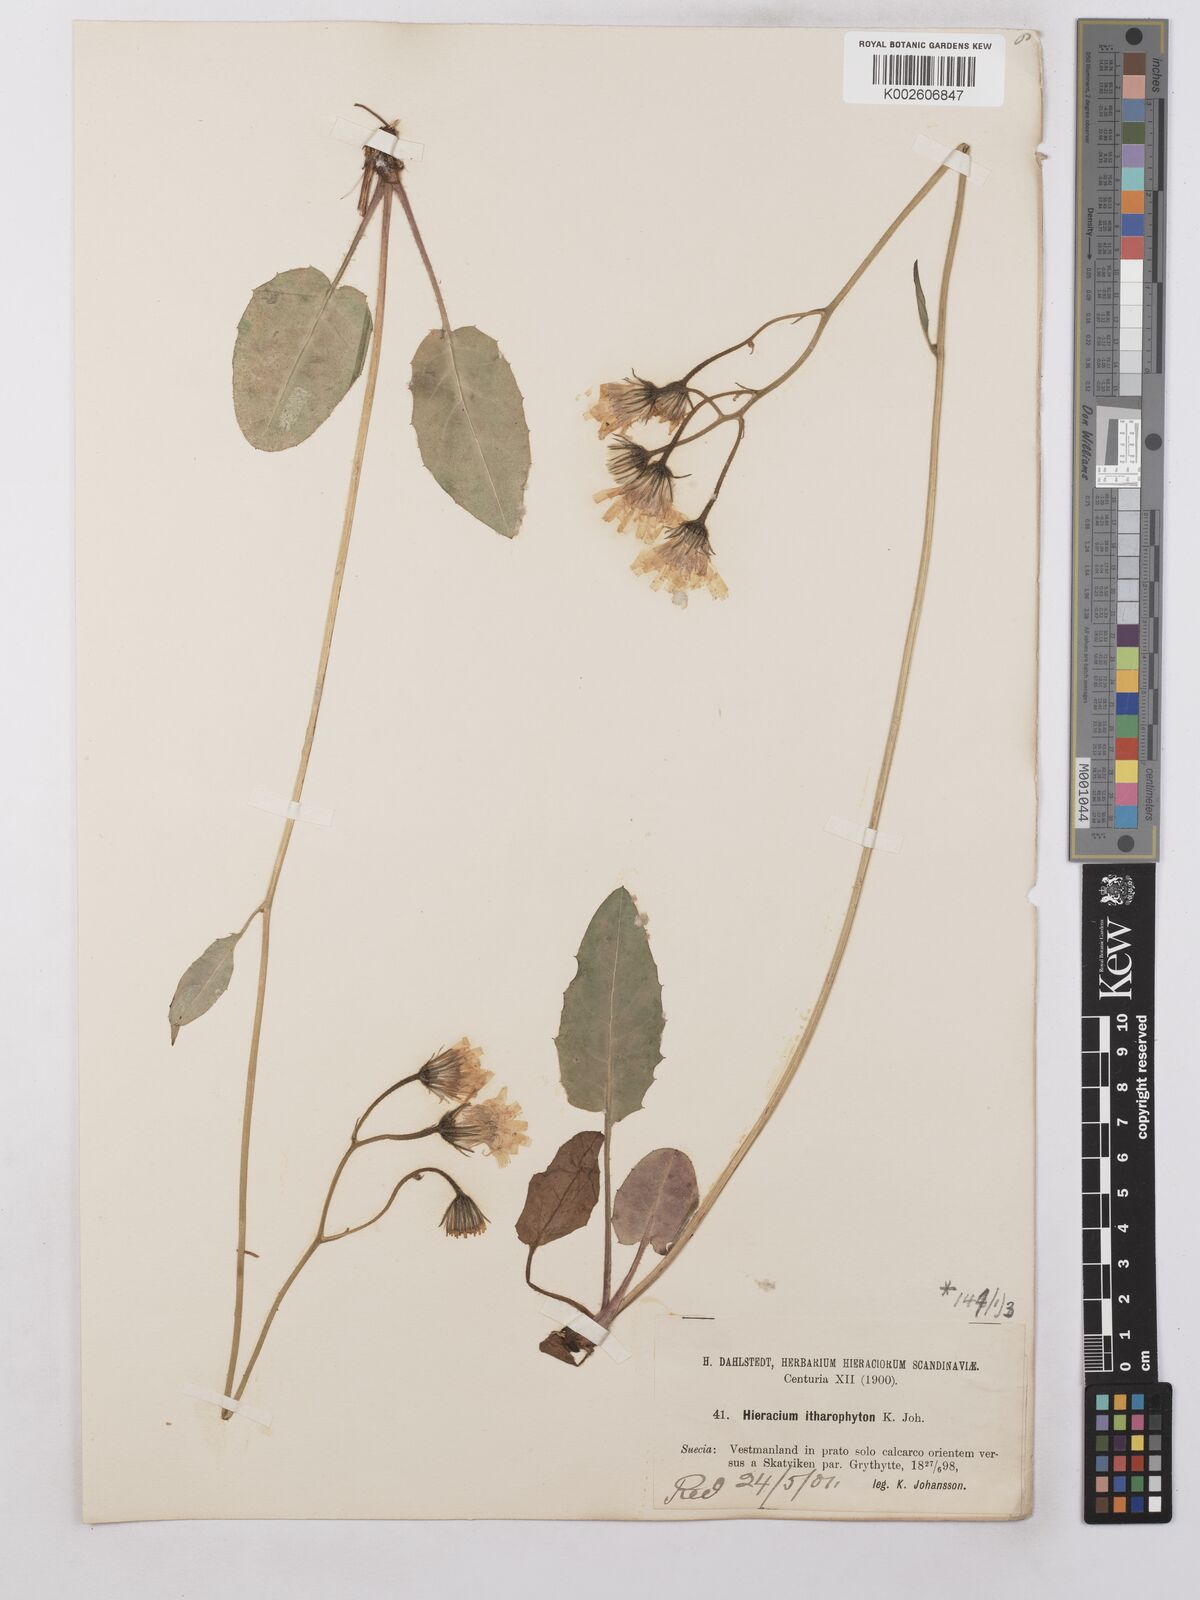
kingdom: Plantae
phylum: Tracheophyta
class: Magnoliopsida
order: Asterales
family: Asteraceae
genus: Hieracium
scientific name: Hieracium chlorellum
